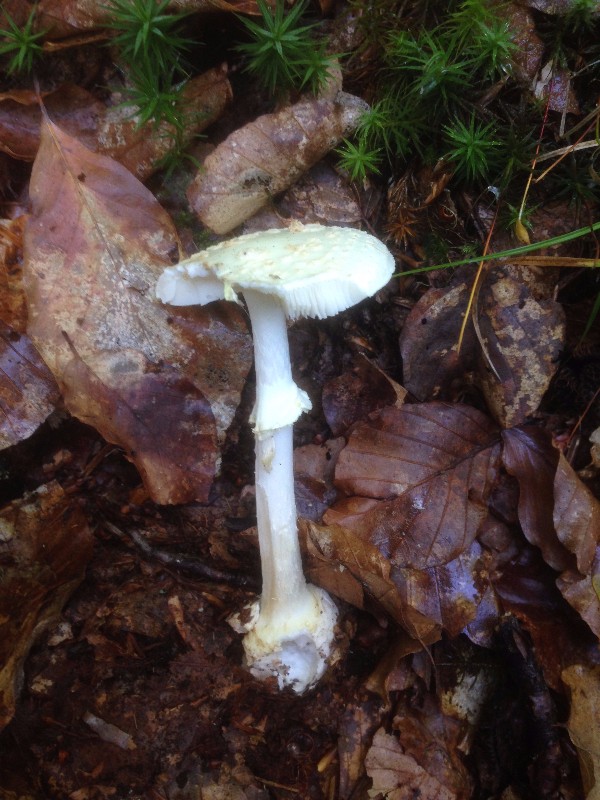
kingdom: Fungi
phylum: Basidiomycota
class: Agaricomycetes
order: Agaricales
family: Amanitaceae
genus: Amanita
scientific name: Amanita citrina
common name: kugleknoldet fluesvamp
